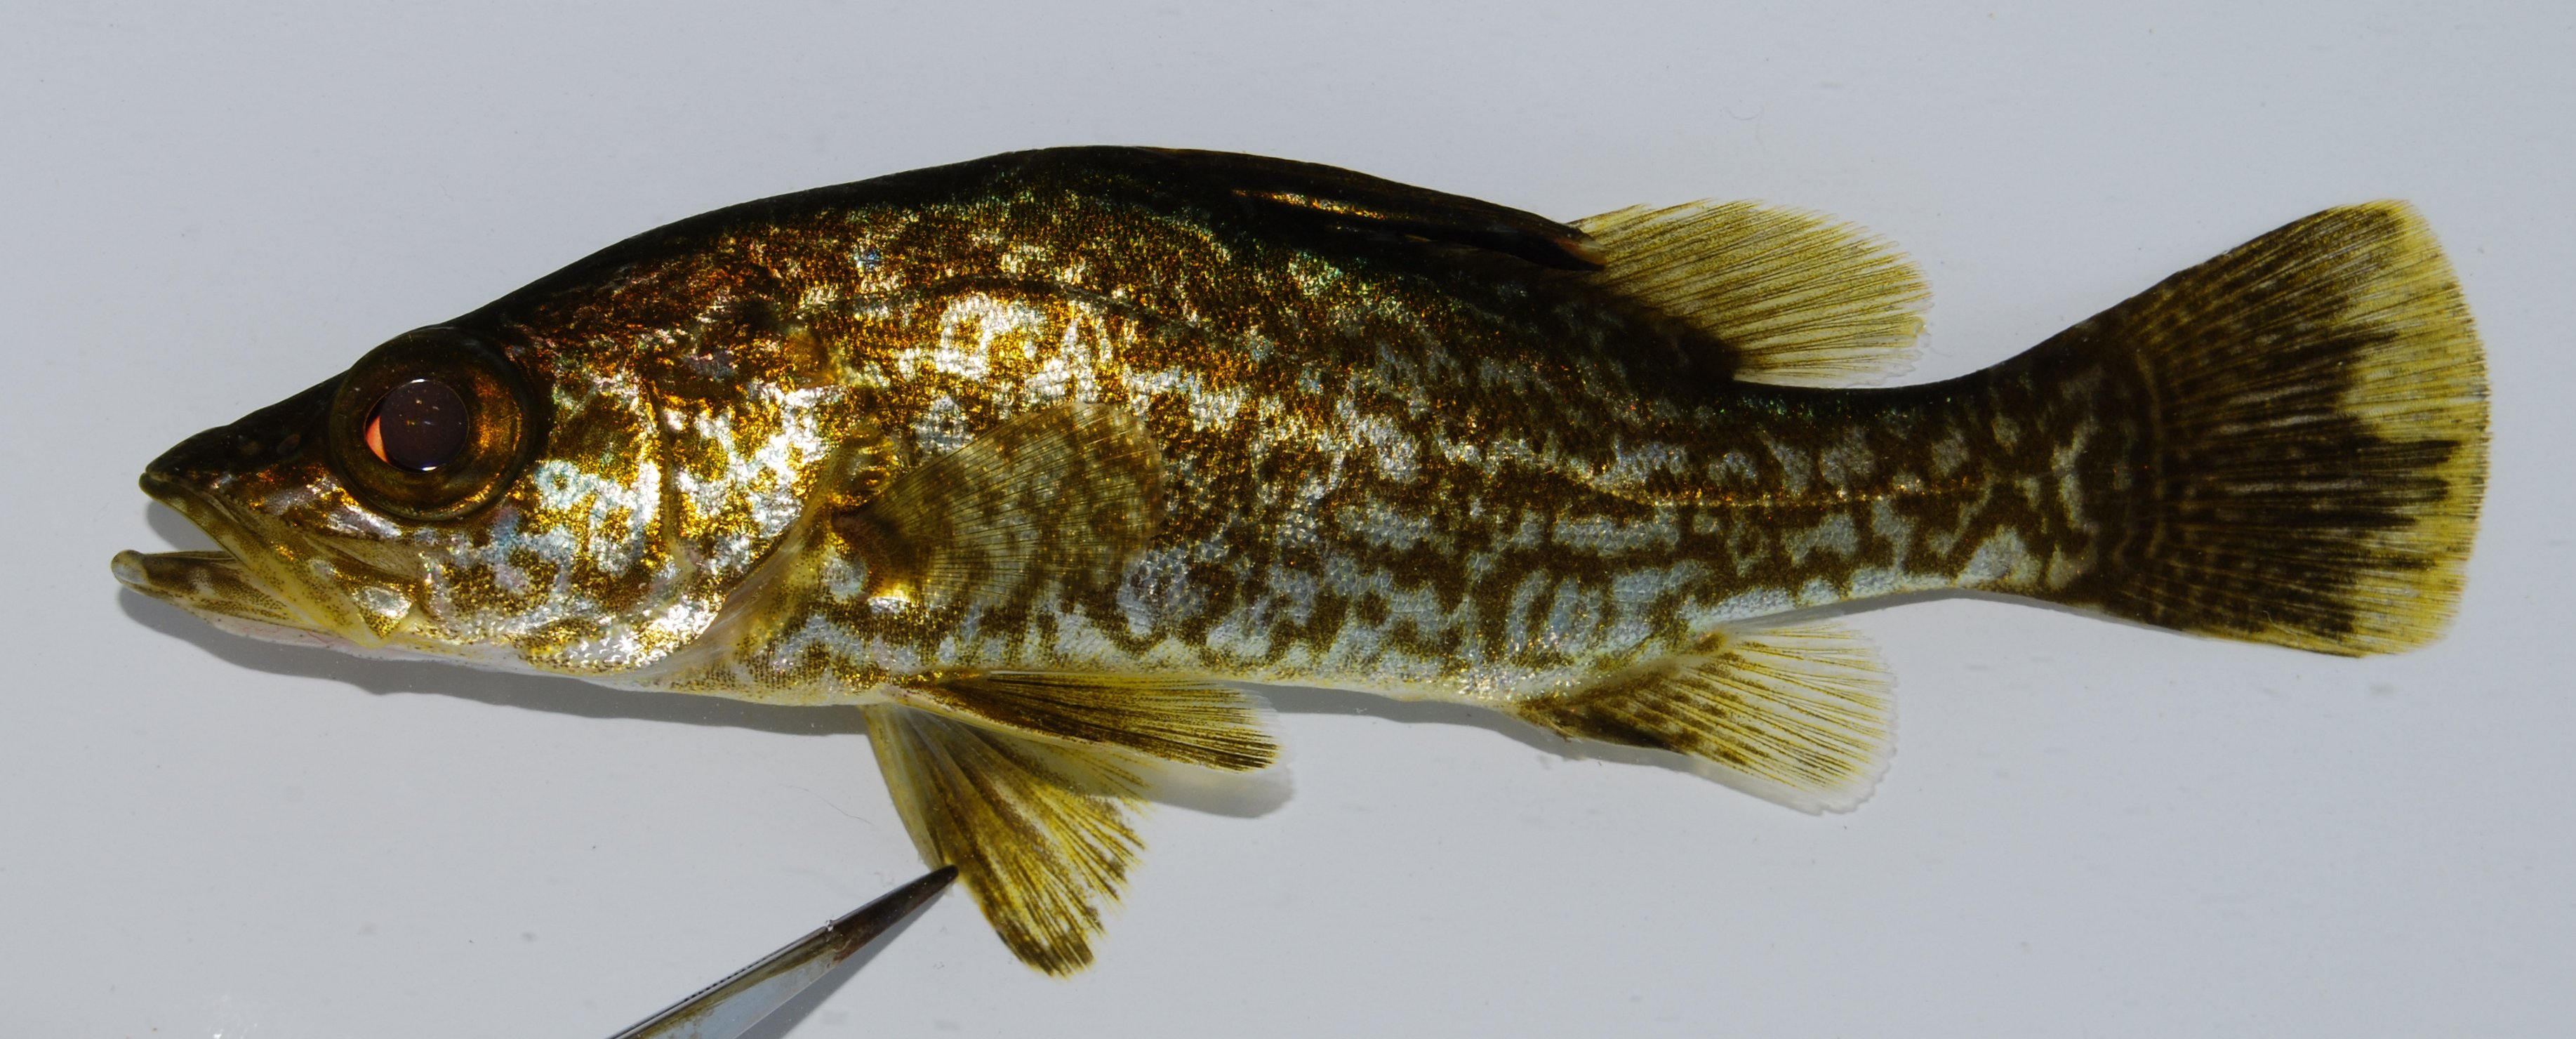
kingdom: Animalia
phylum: Chordata
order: Perciformes
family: Latidae
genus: Lates
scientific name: Lates mariae
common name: Bigeye lates
